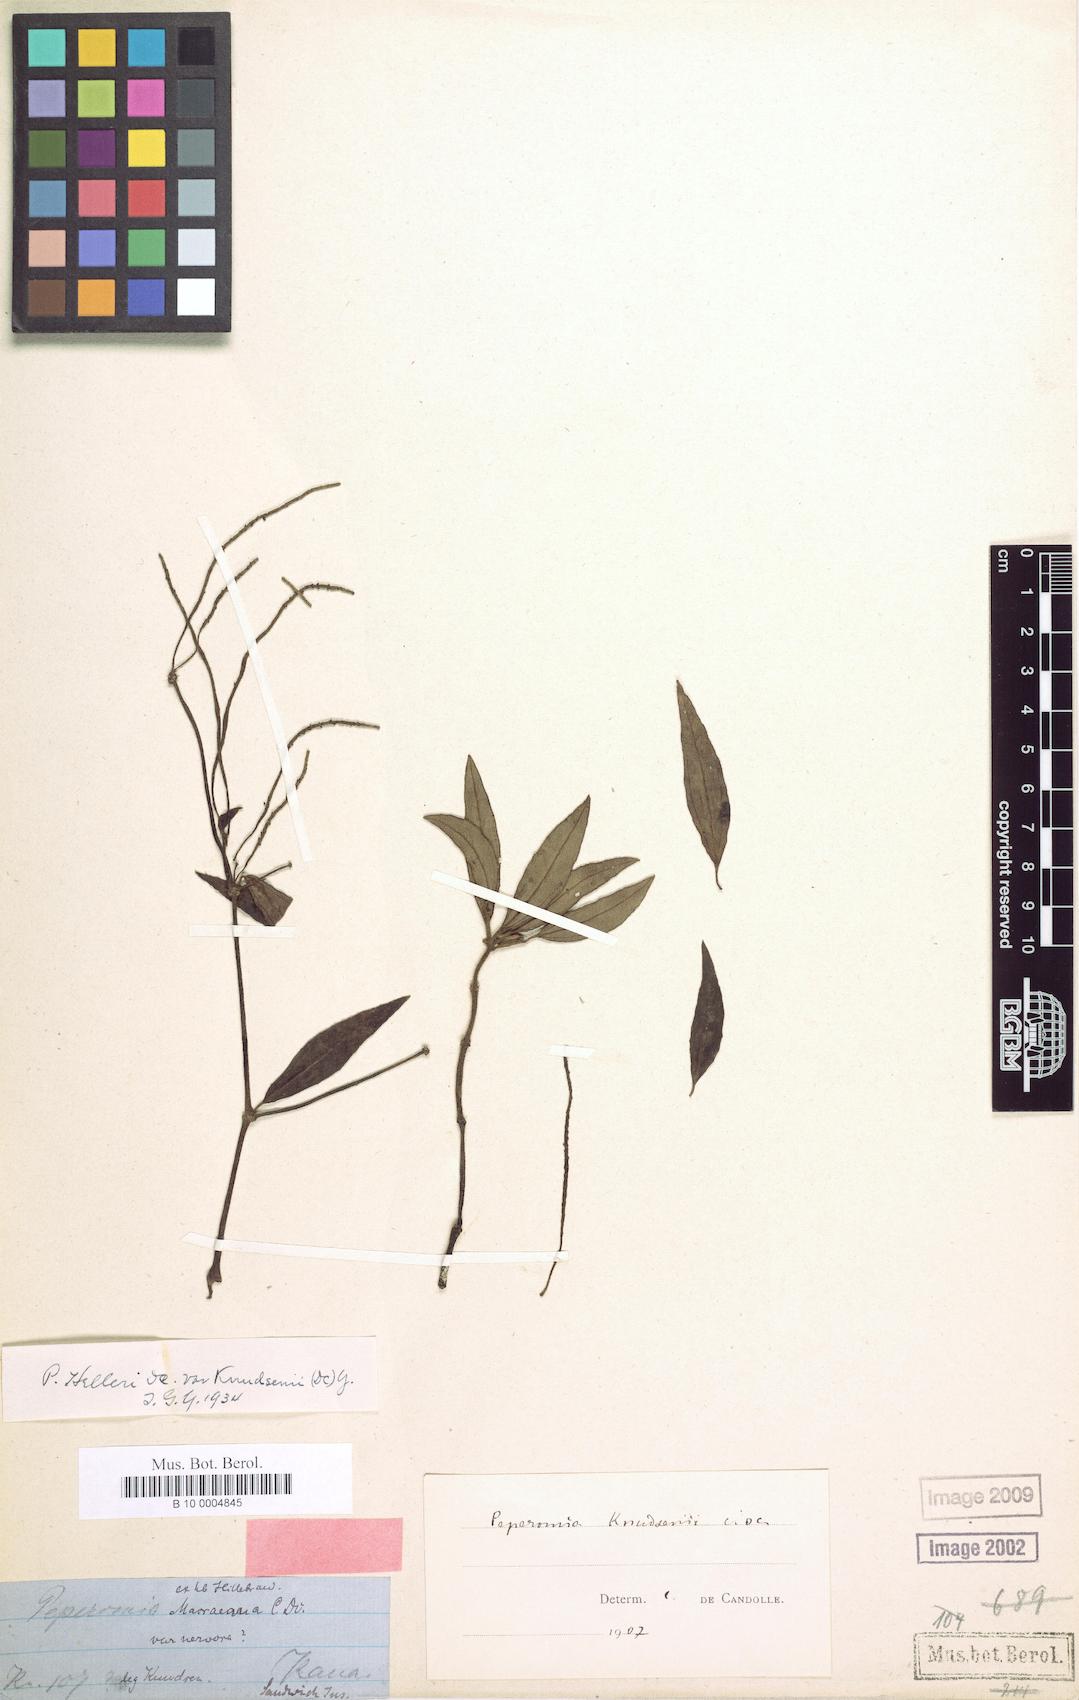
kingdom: Plantae
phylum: Tracheophyta
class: Magnoliopsida
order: Piperales
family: Piperaceae
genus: Peperomia
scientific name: Peperomia cookiana
